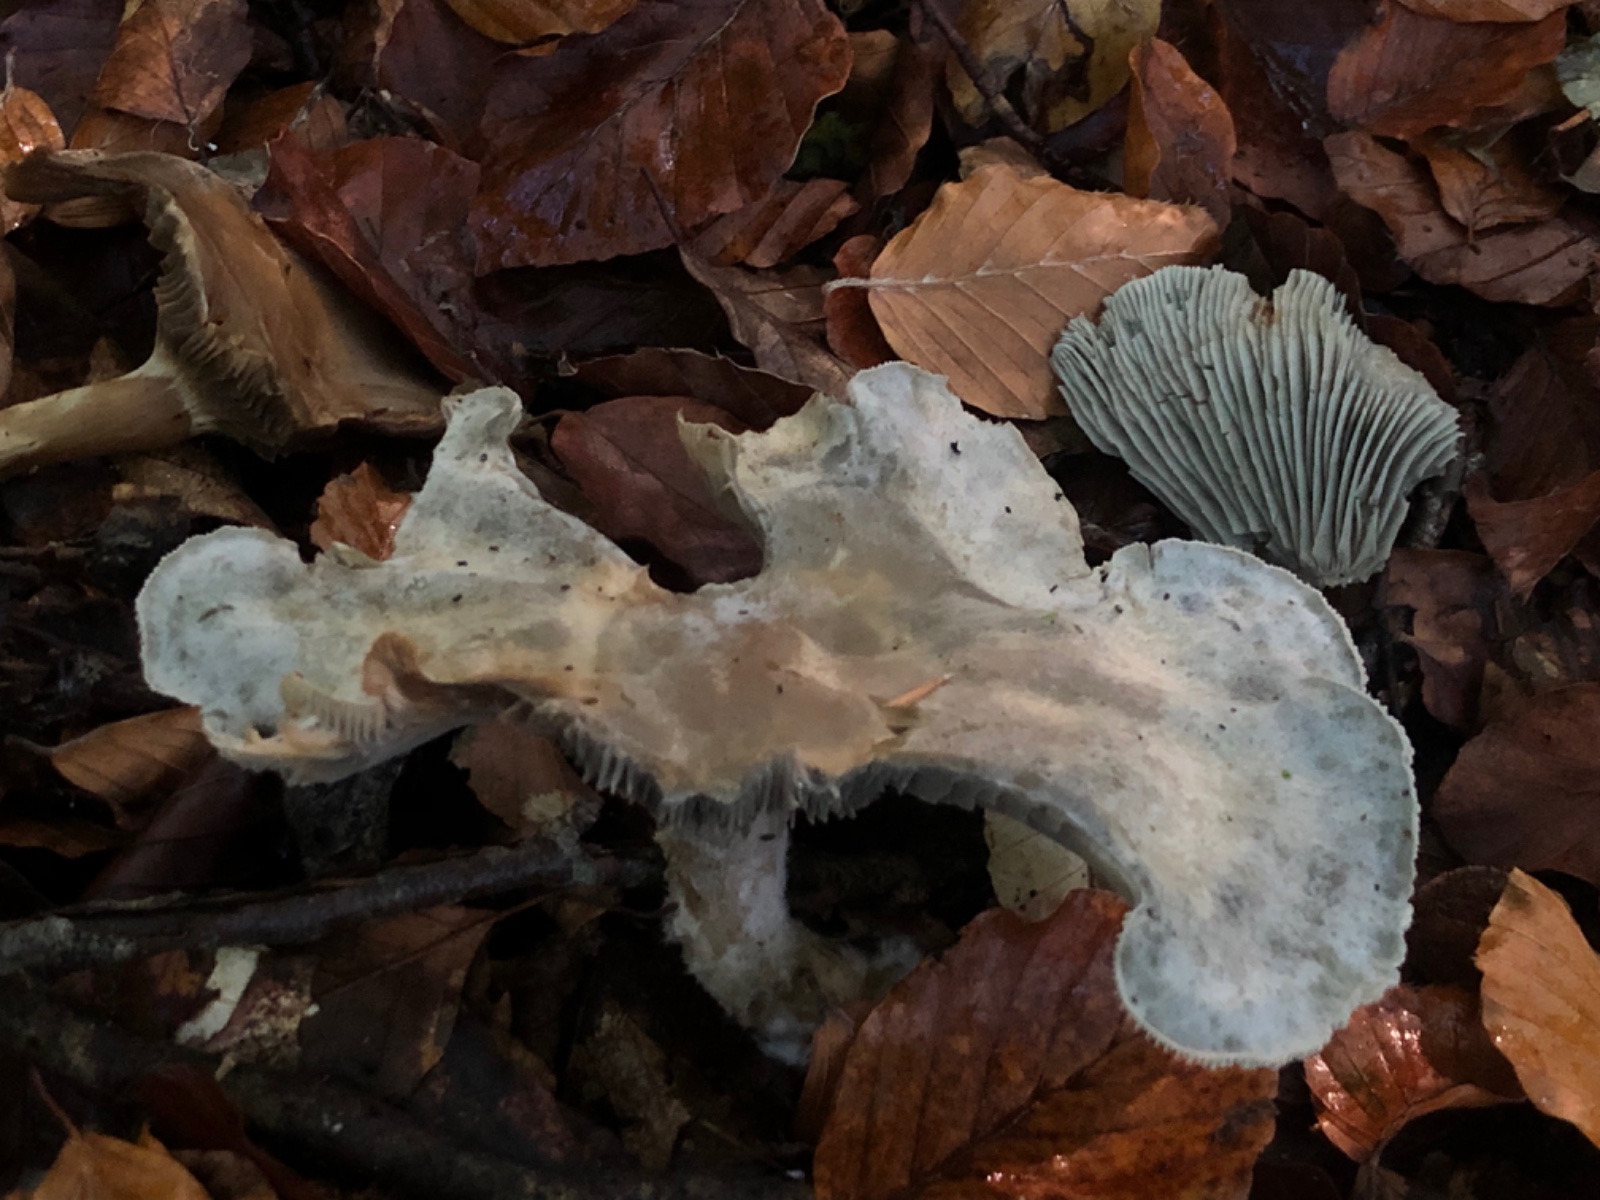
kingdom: Fungi
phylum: Basidiomycota
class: Agaricomycetes
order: Agaricales
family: Tricholomataceae
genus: Clitocybe
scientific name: Clitocybe odora
